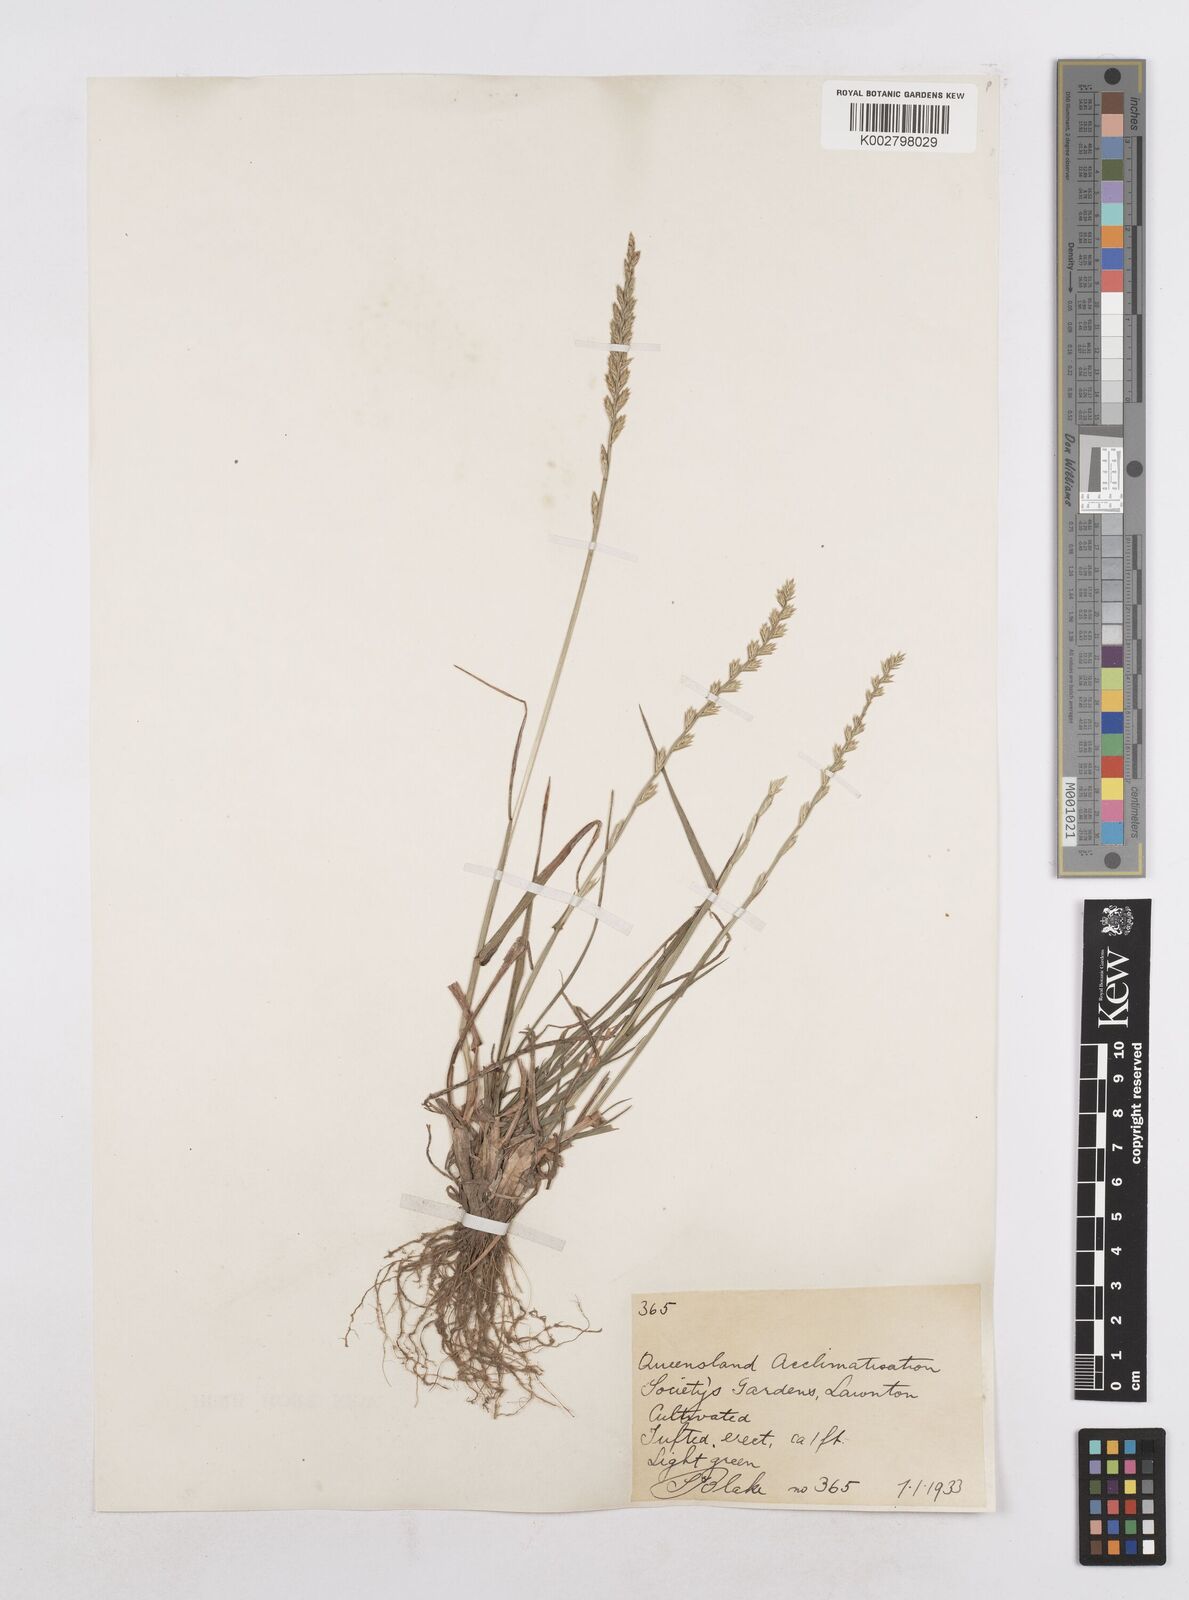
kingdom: Plantae
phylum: Tracheophyta
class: Liliopsida
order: Poales
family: Poaceae
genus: Lolium
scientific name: Lolium perenne
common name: Perennial ryegrass
